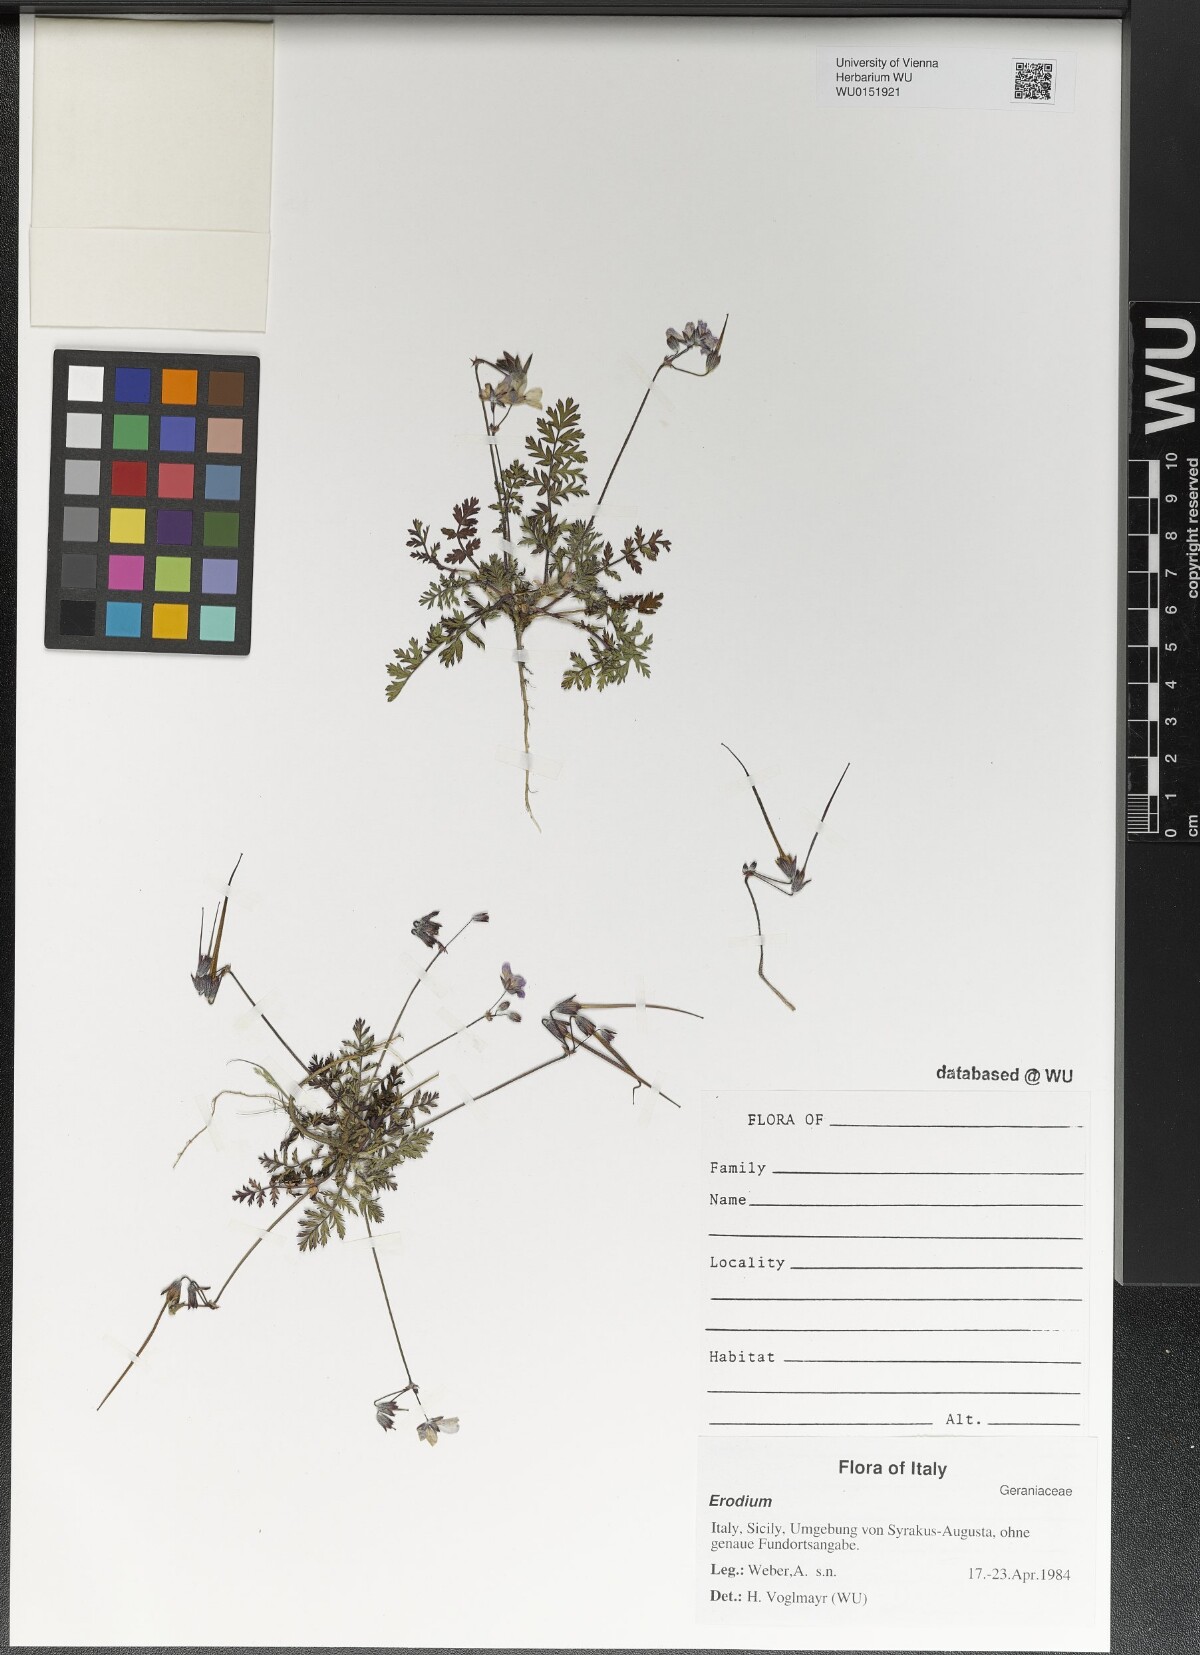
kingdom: Plantae
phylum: Tracheophyta
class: Magnoliopsida
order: Geraniales
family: Geraniaceae
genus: Erodium
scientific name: Erodium
